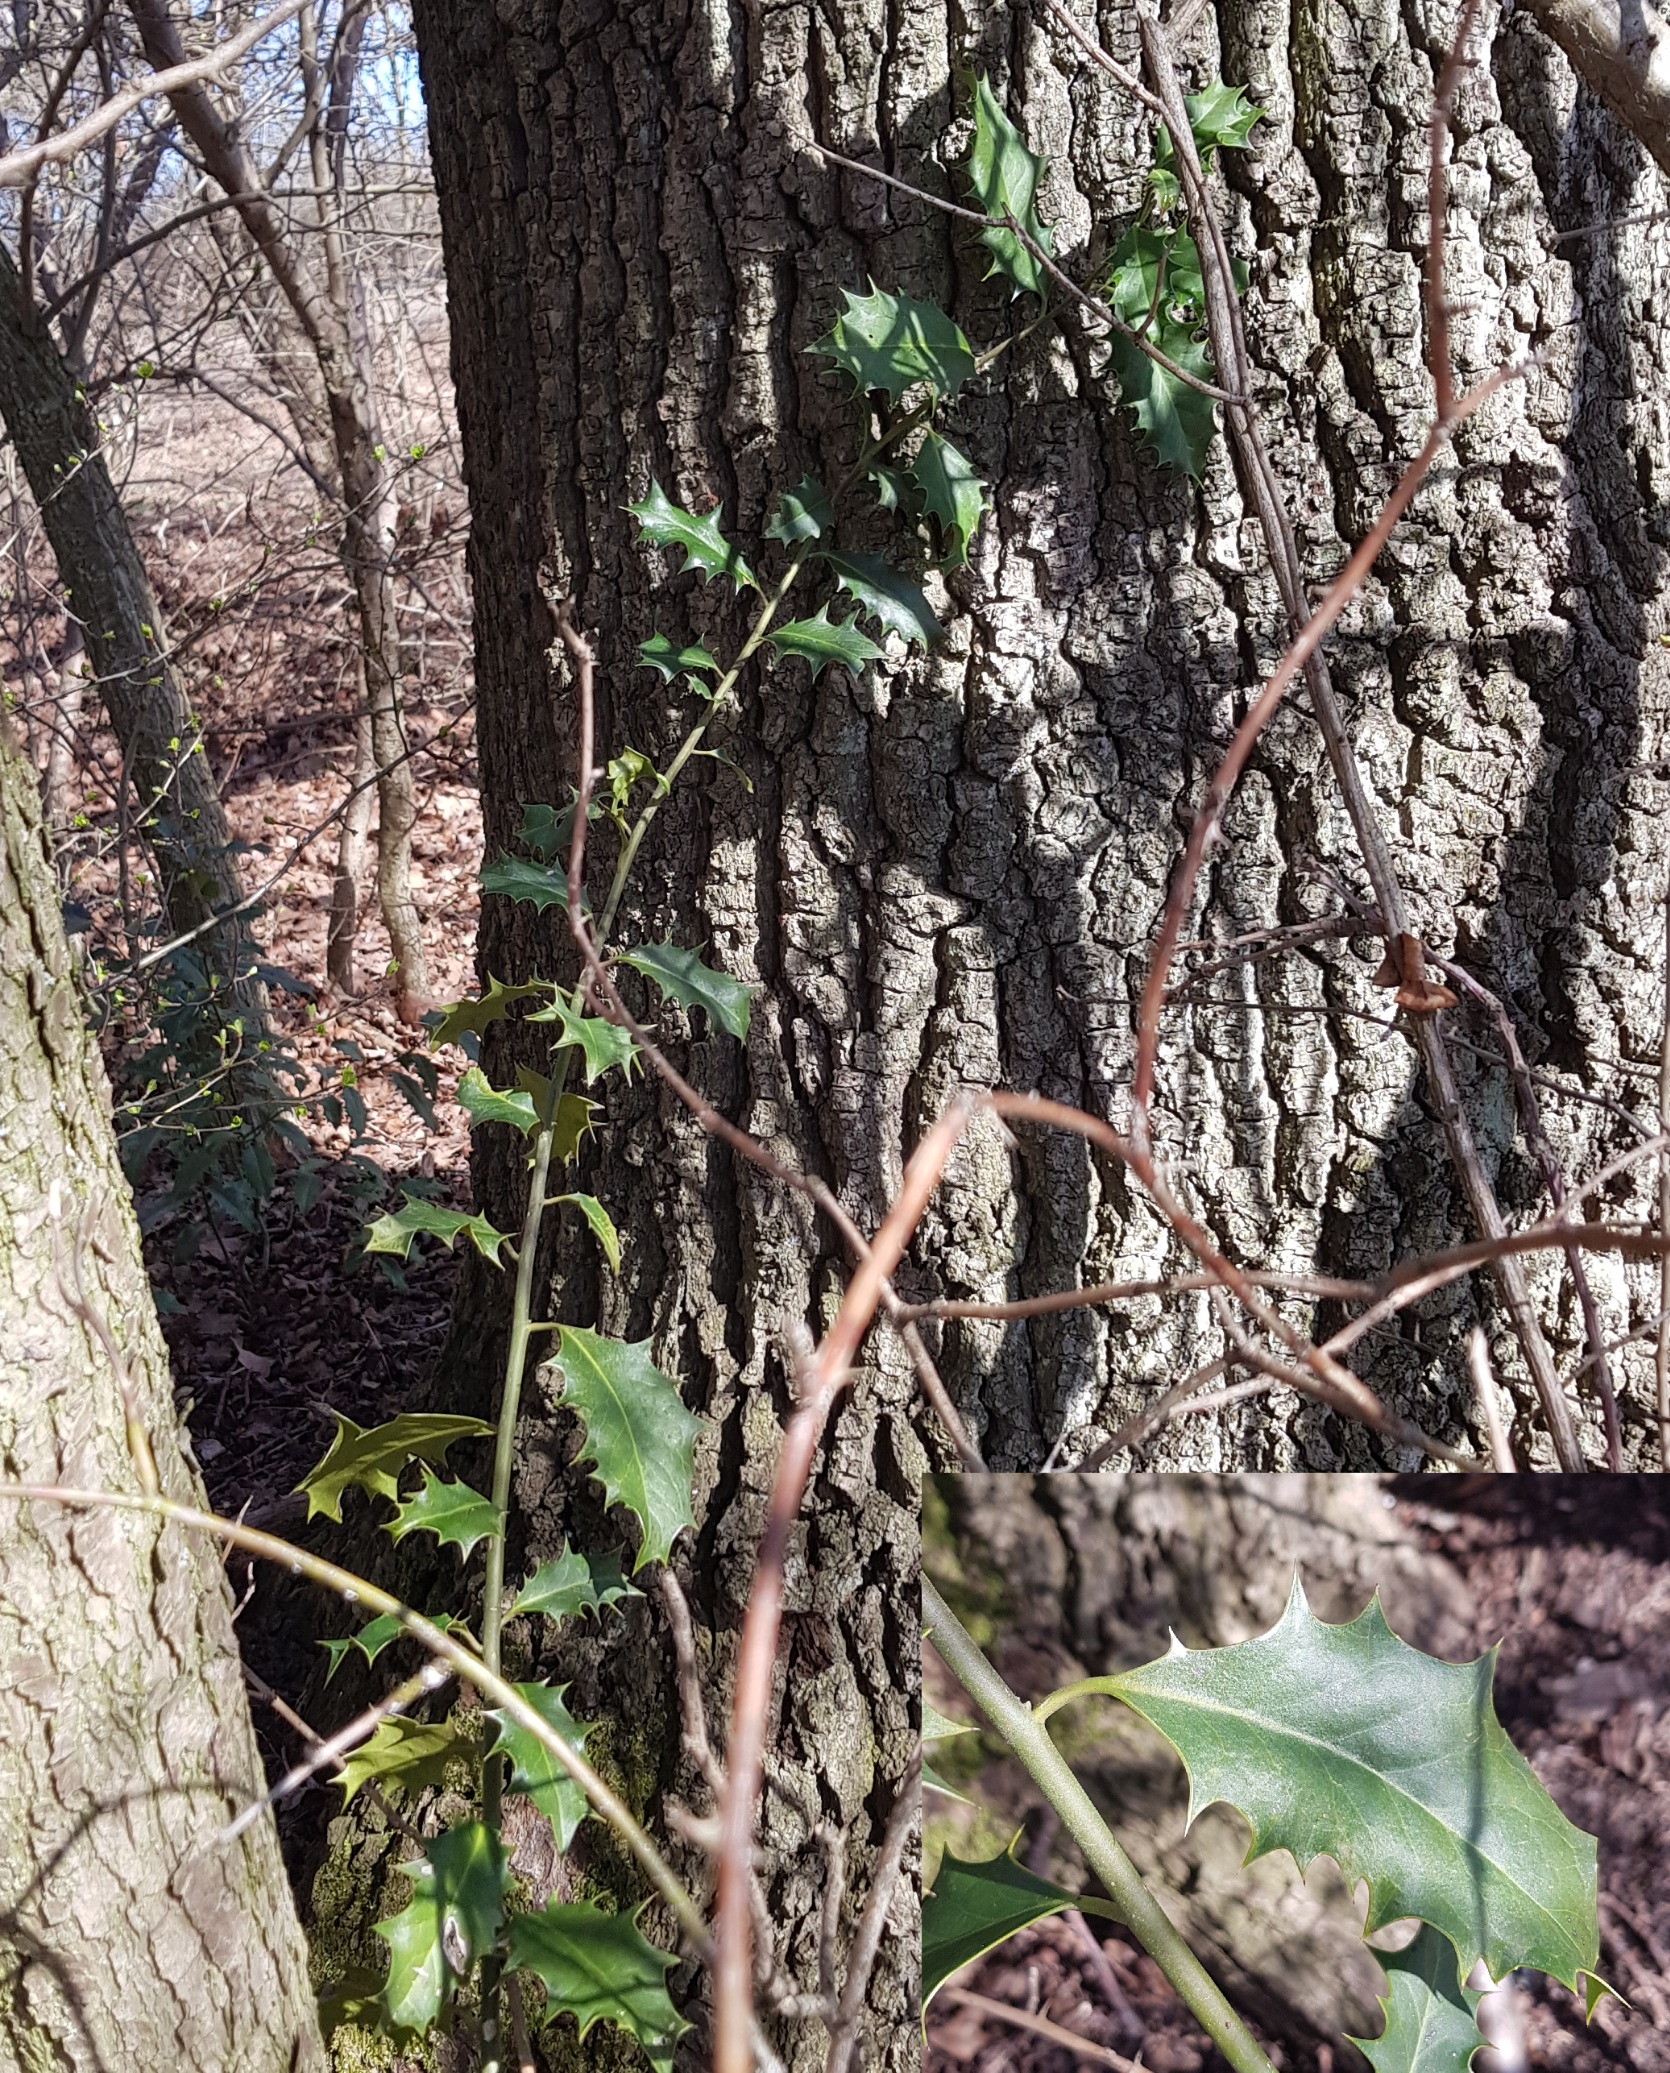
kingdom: Plantae
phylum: Tracheophyta
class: Magnoliopsida
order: Aquifoliales
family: Aquifoliaceae
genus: Ilex
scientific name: Ilex aquifolium
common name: Kristtorn
